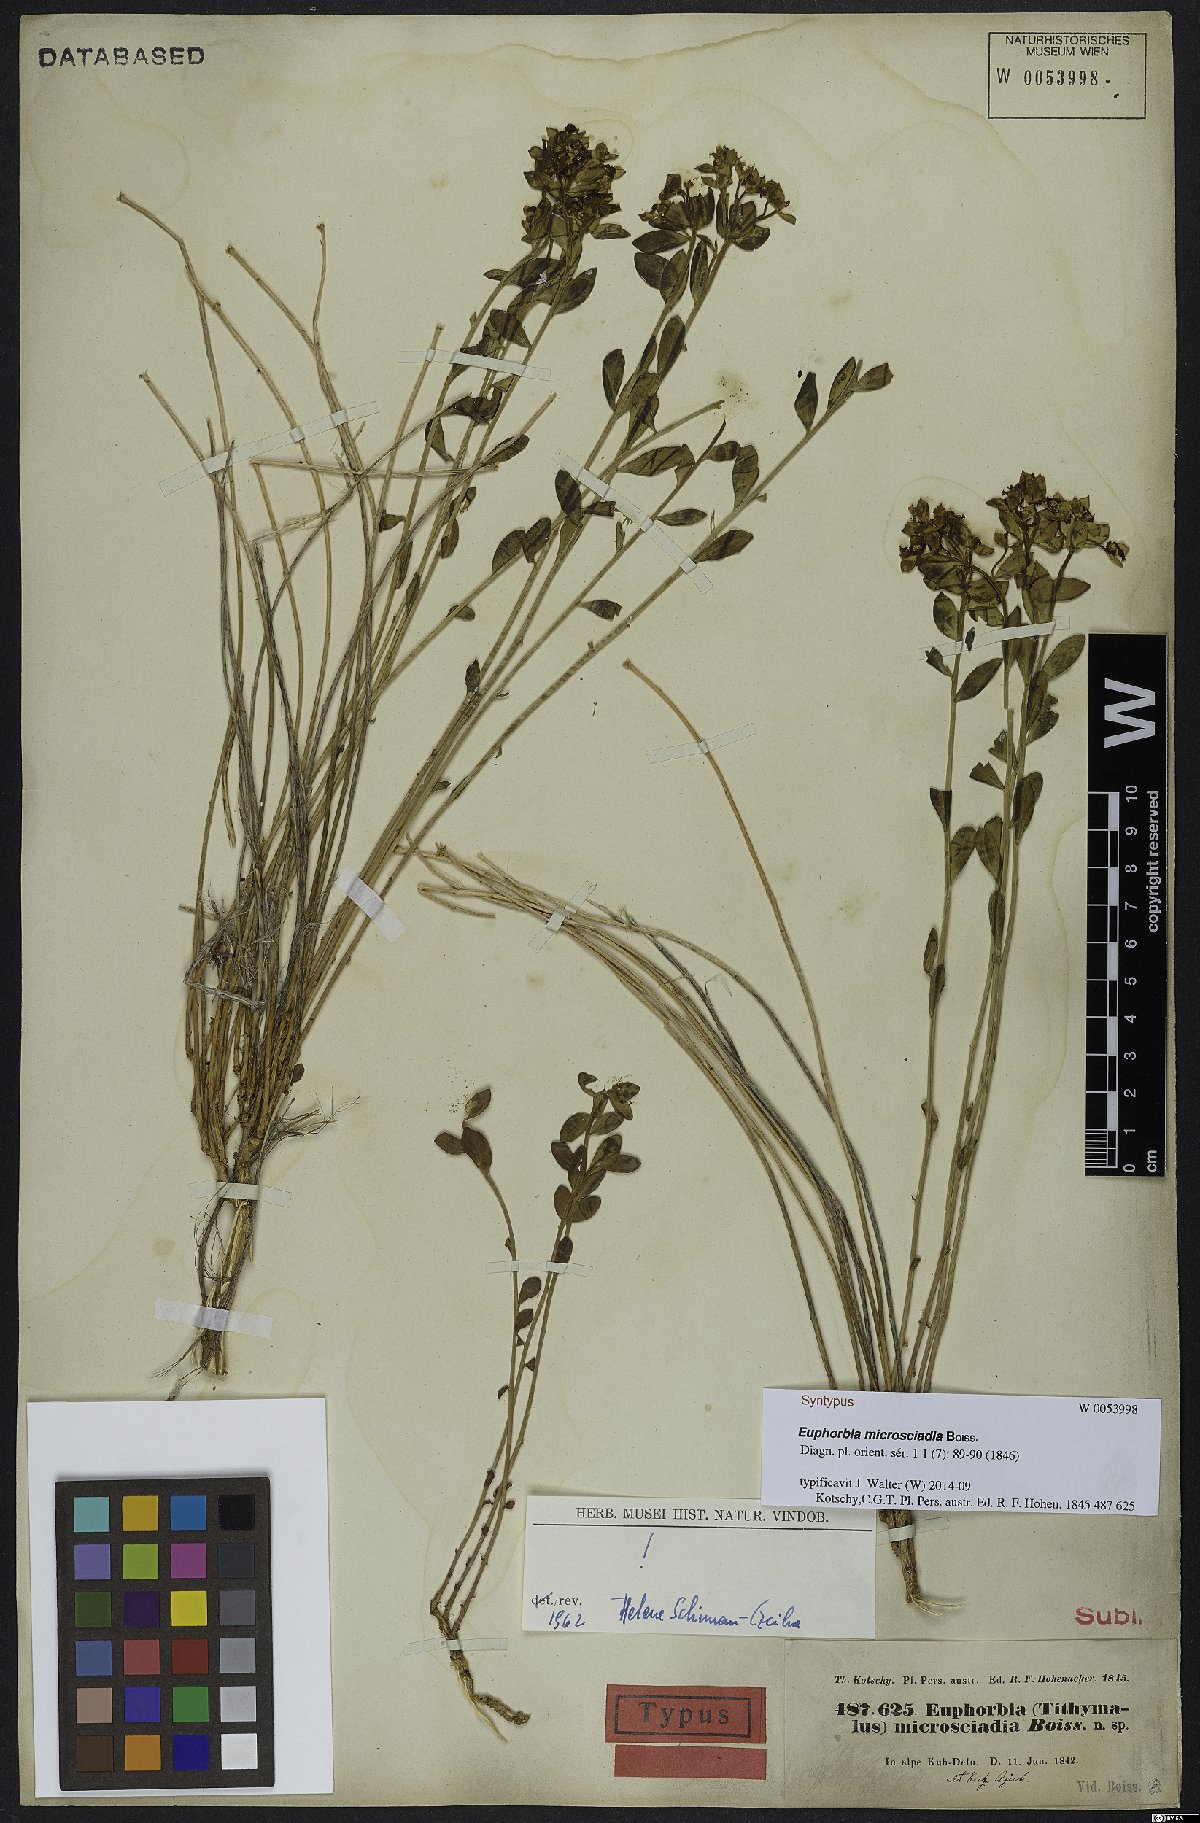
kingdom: Plantae
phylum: Tracheophyta
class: Magnoliopsida
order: Malpighiales
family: Euphorbiaceae
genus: Euphorbia
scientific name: Euphorbia microsciadia
